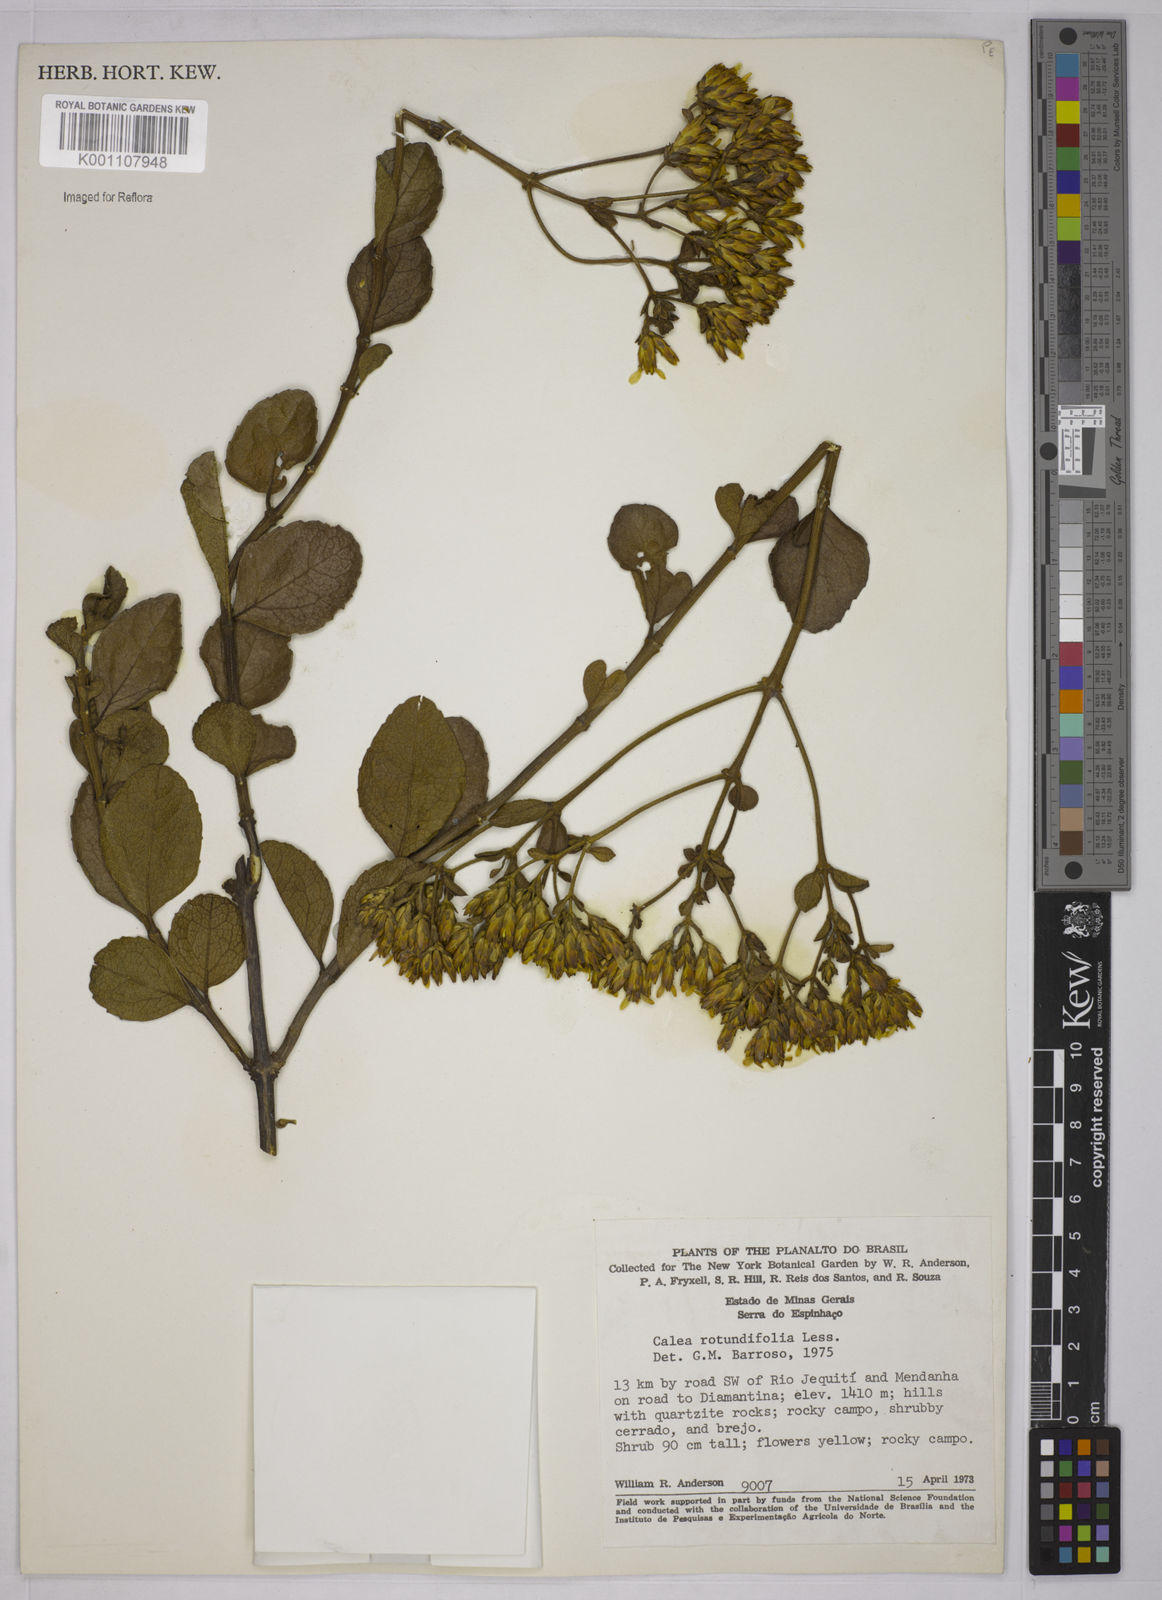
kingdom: Plantae
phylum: Tracheophyta
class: Magnoliopsida
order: Asterales
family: Asteraceae
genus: Calea
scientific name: Calea rotundifolia
